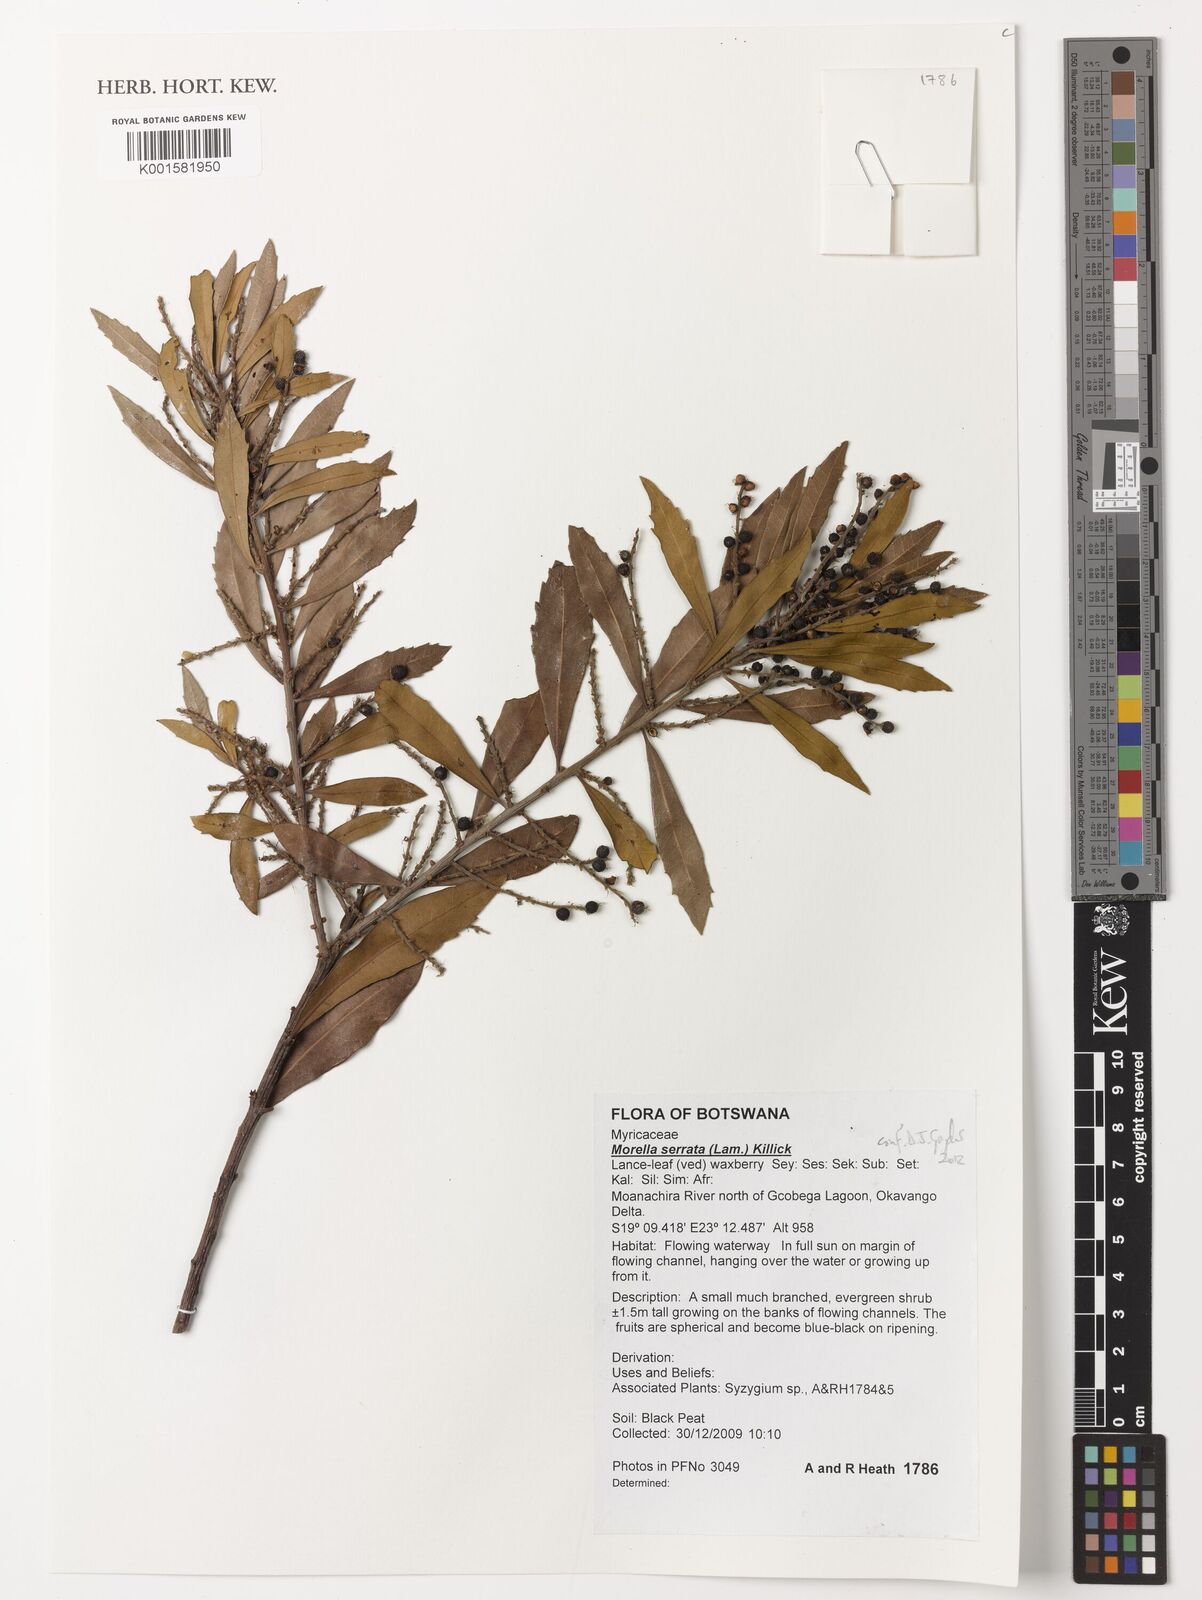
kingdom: Plantae
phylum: Tracheophyta
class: Magnoliopsida
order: Fagales
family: Myricaceae
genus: Morella
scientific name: Morella serrata
